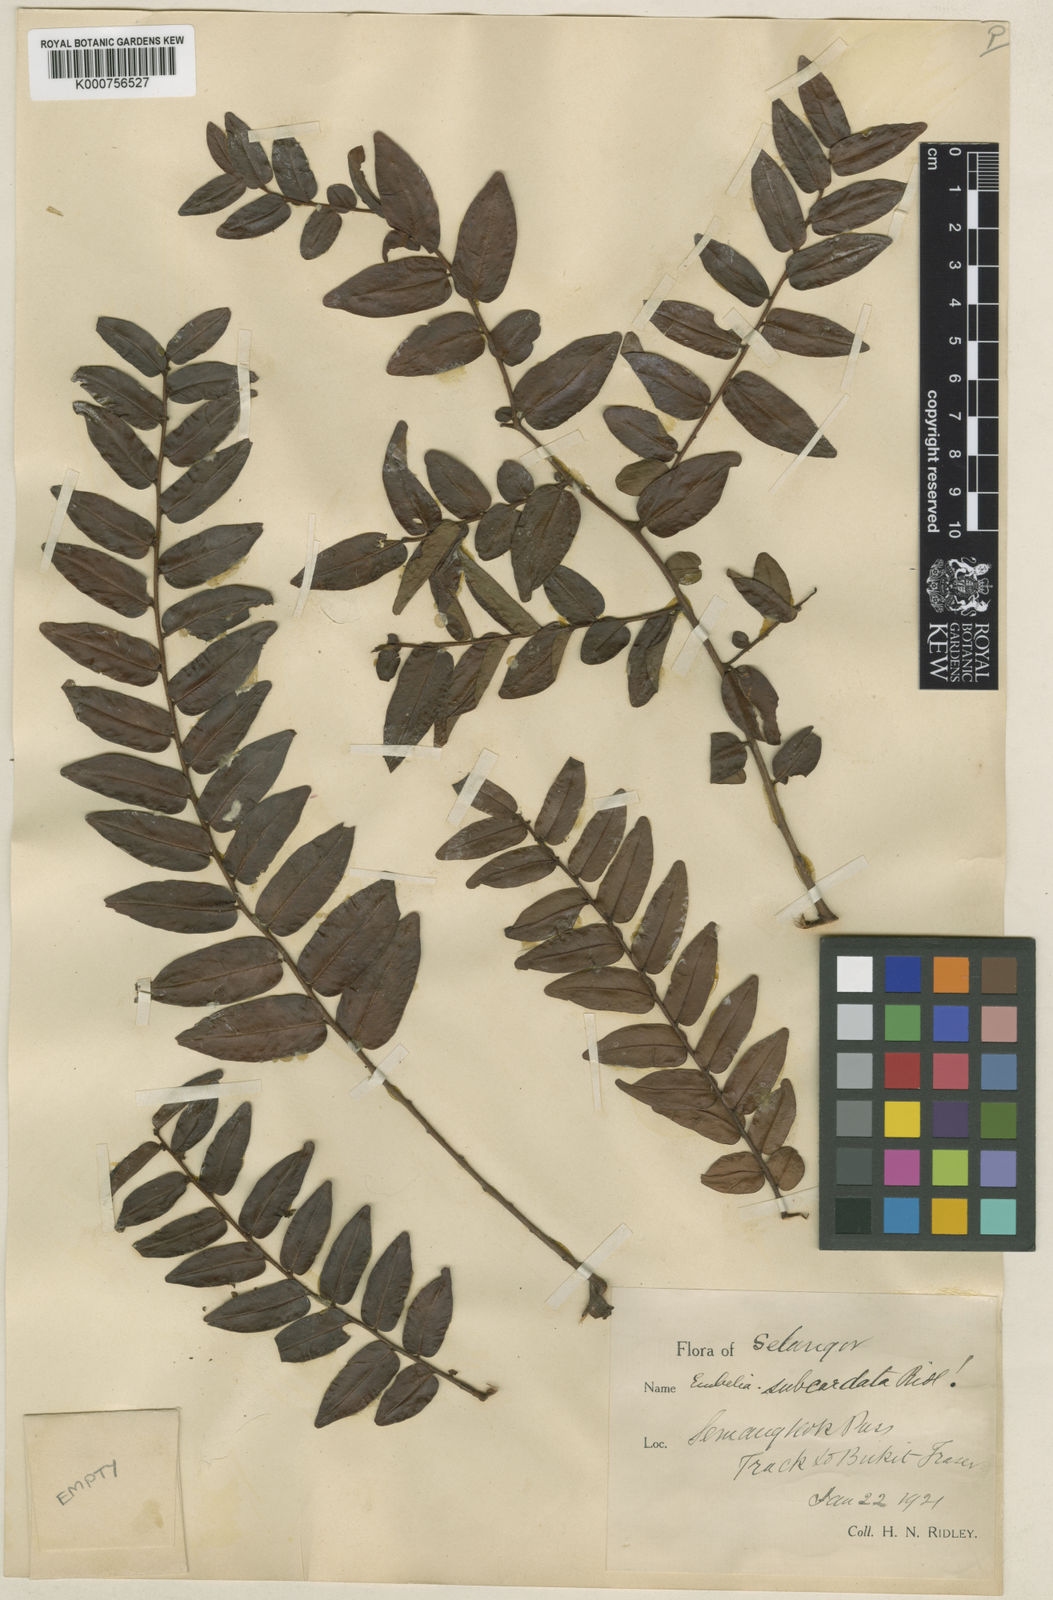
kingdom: Plantae
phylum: Tracheophyta
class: Magnoliopsida
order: Ericales
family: Primulaceae
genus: Embelia
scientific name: Embelia subcordata
